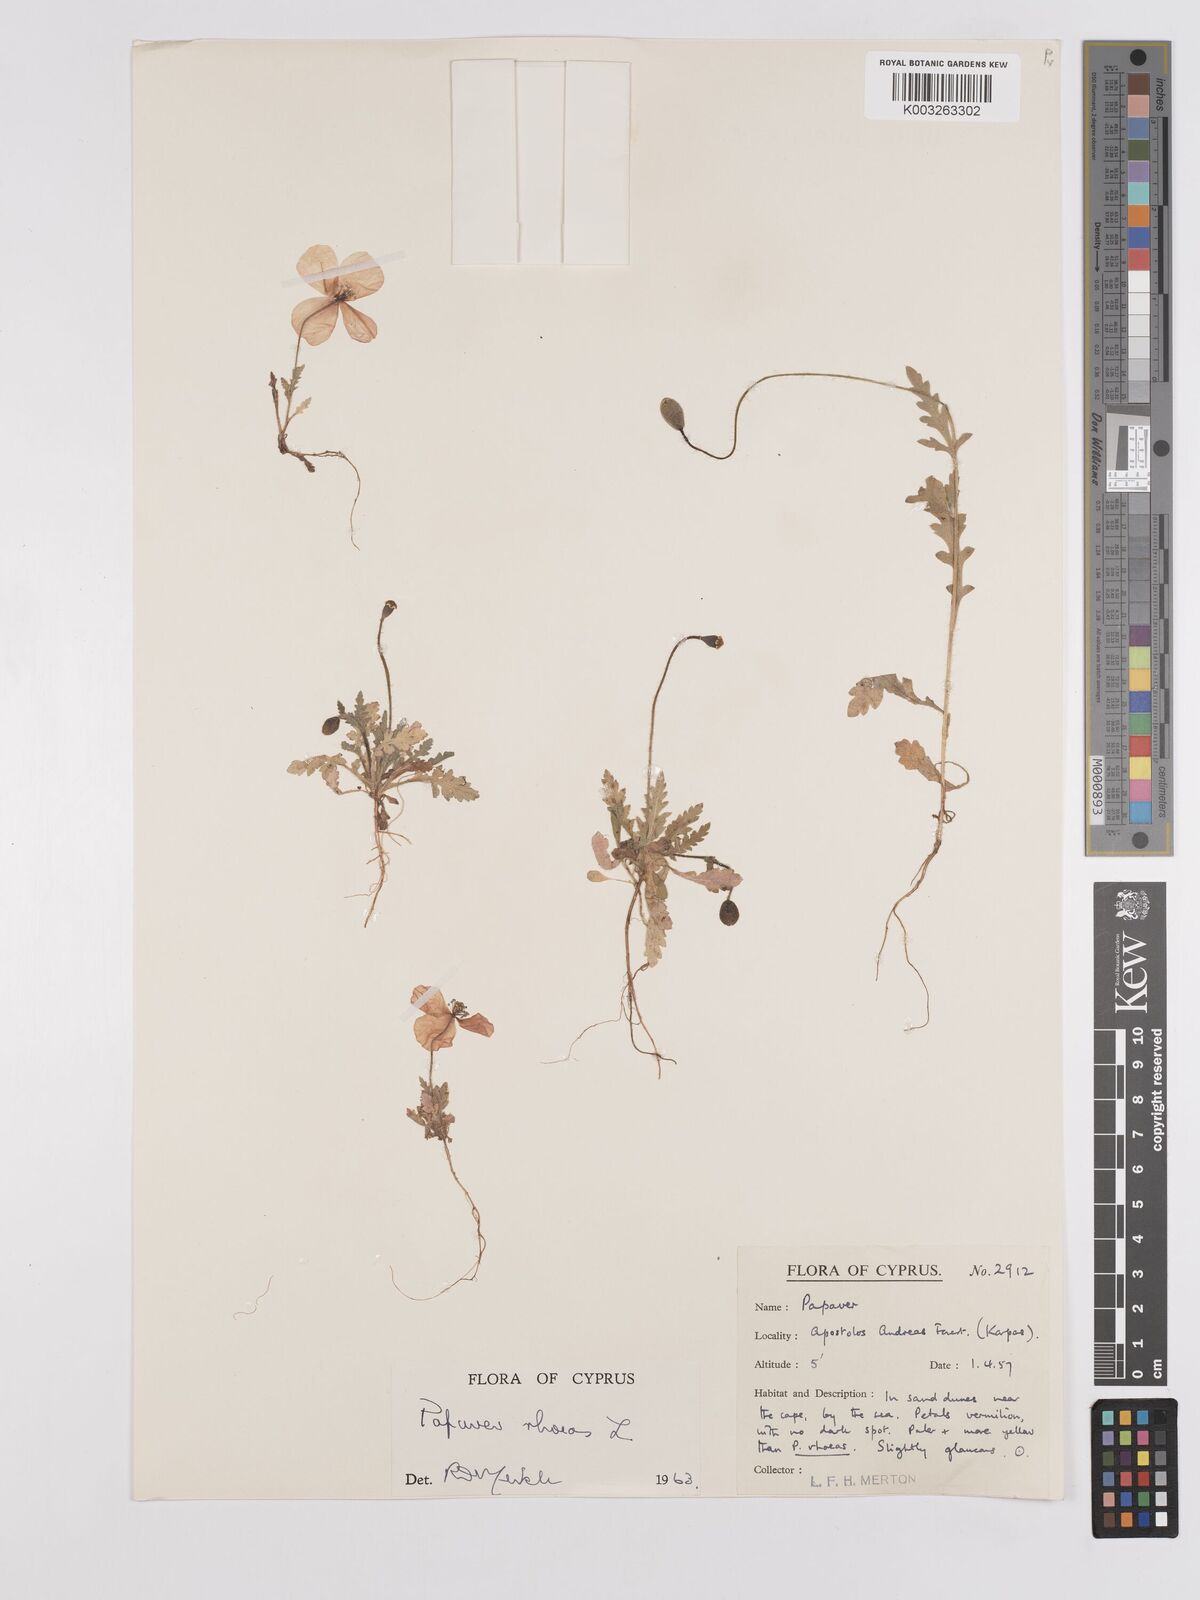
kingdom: Plantae
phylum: Tracheophyta
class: Magnoliopsida
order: Ranunculales
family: Papaveraceae
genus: Papaver
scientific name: Papaver rhoeas
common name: Corn poppy
